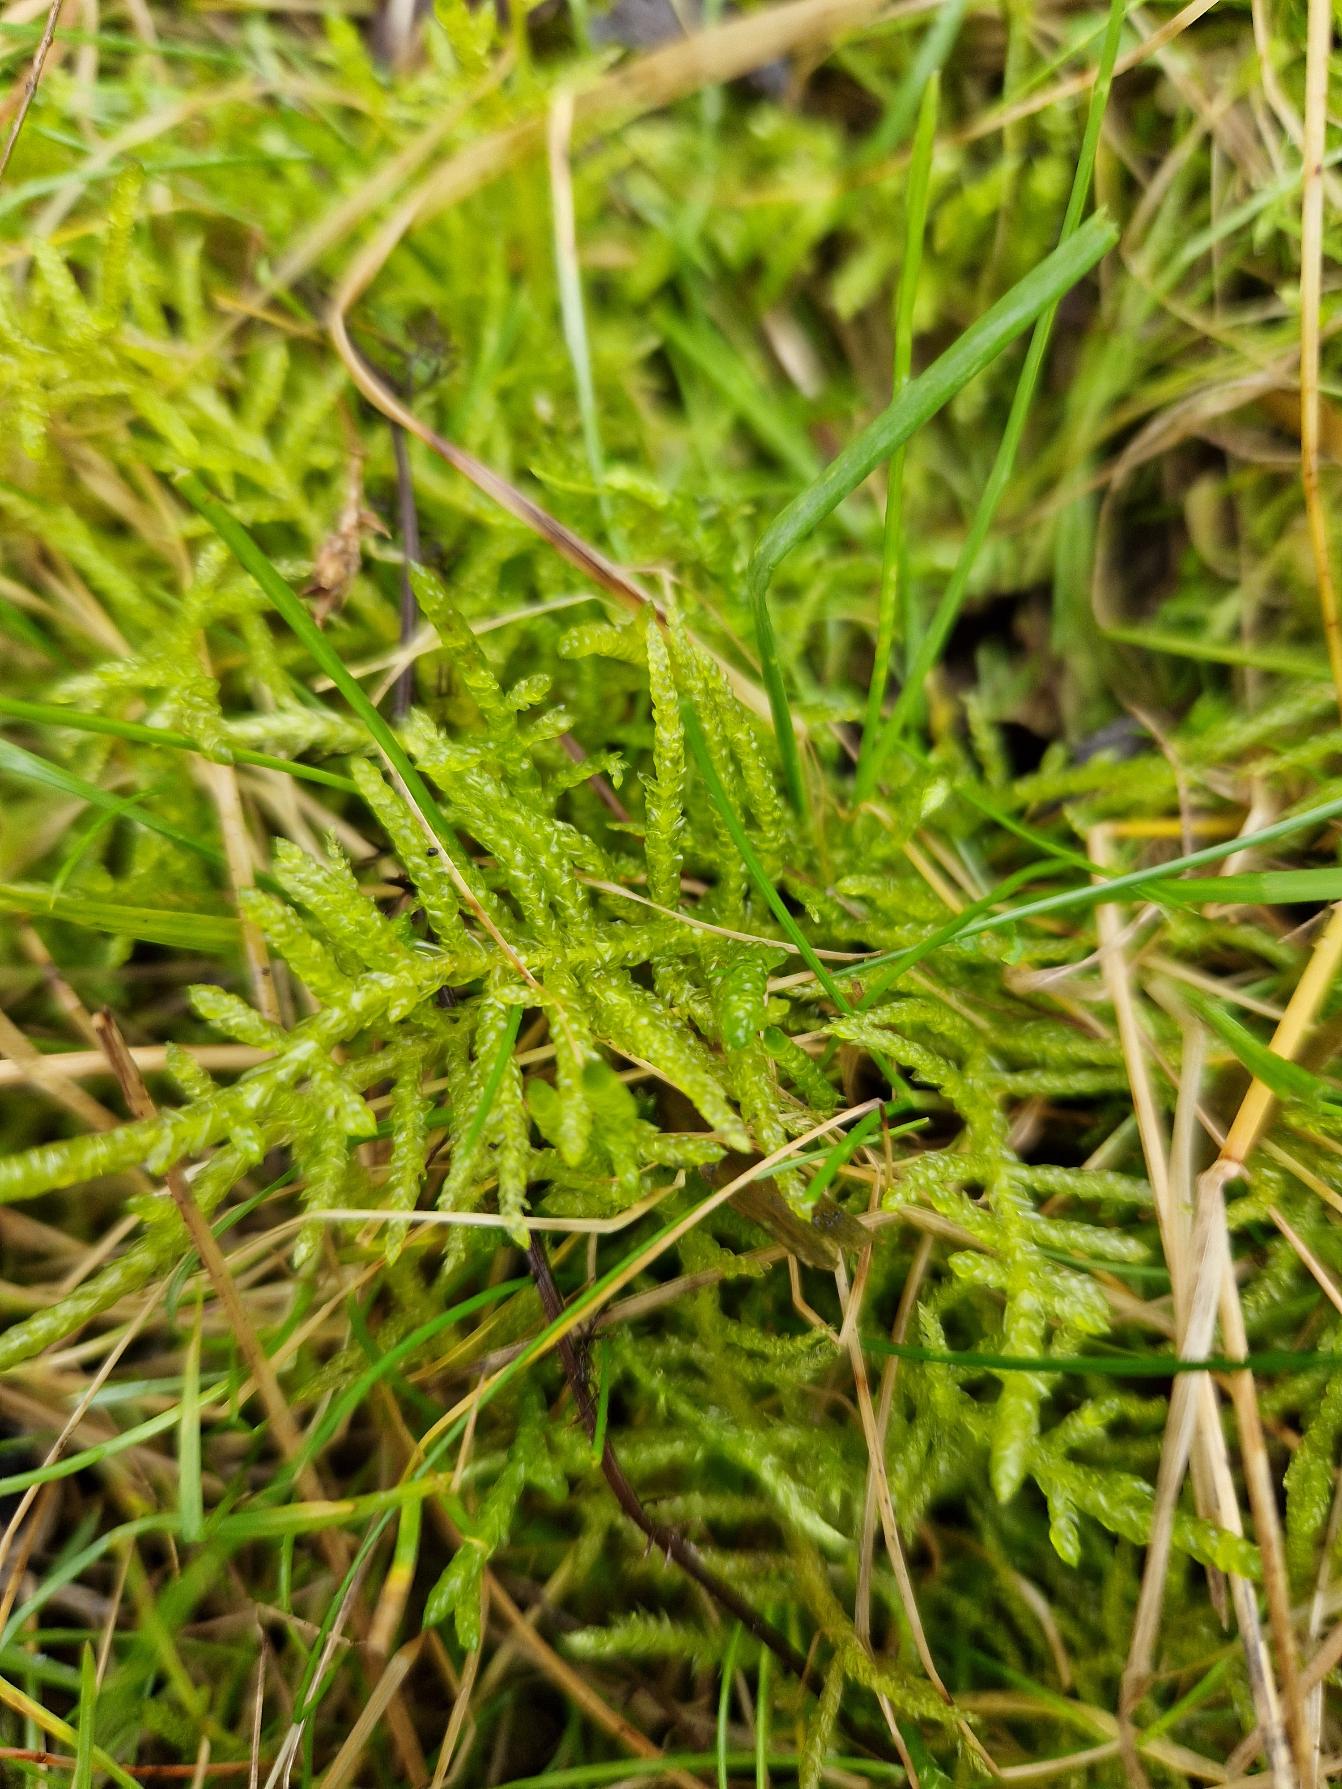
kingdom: Plantae
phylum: Bryophyta
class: Bryopsida
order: Hypnales
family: Brachytheciaceae
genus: Pseudoscleropodium
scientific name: Pseudoscleropodium purum
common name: Hulbladet fedtmos
